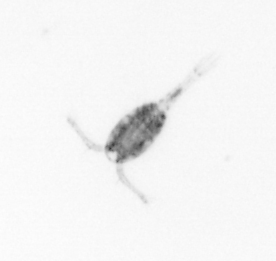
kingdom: Animalia
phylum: Arthropoda
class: Copepoda
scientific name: Copepoda
